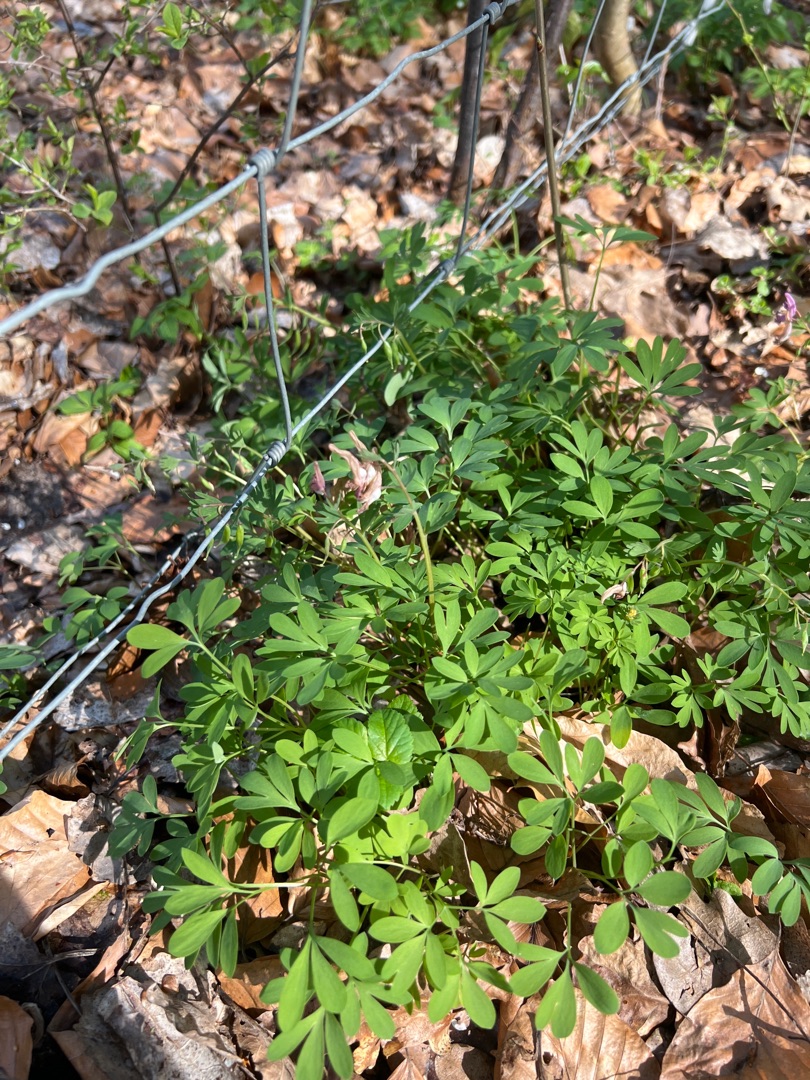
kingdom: Plantae
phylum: Tracheophyta
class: Magnoliopsida
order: Ranunculales
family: Papaveraceae
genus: Corydalis
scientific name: Corydalis solida
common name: Langstilket lærkespore
